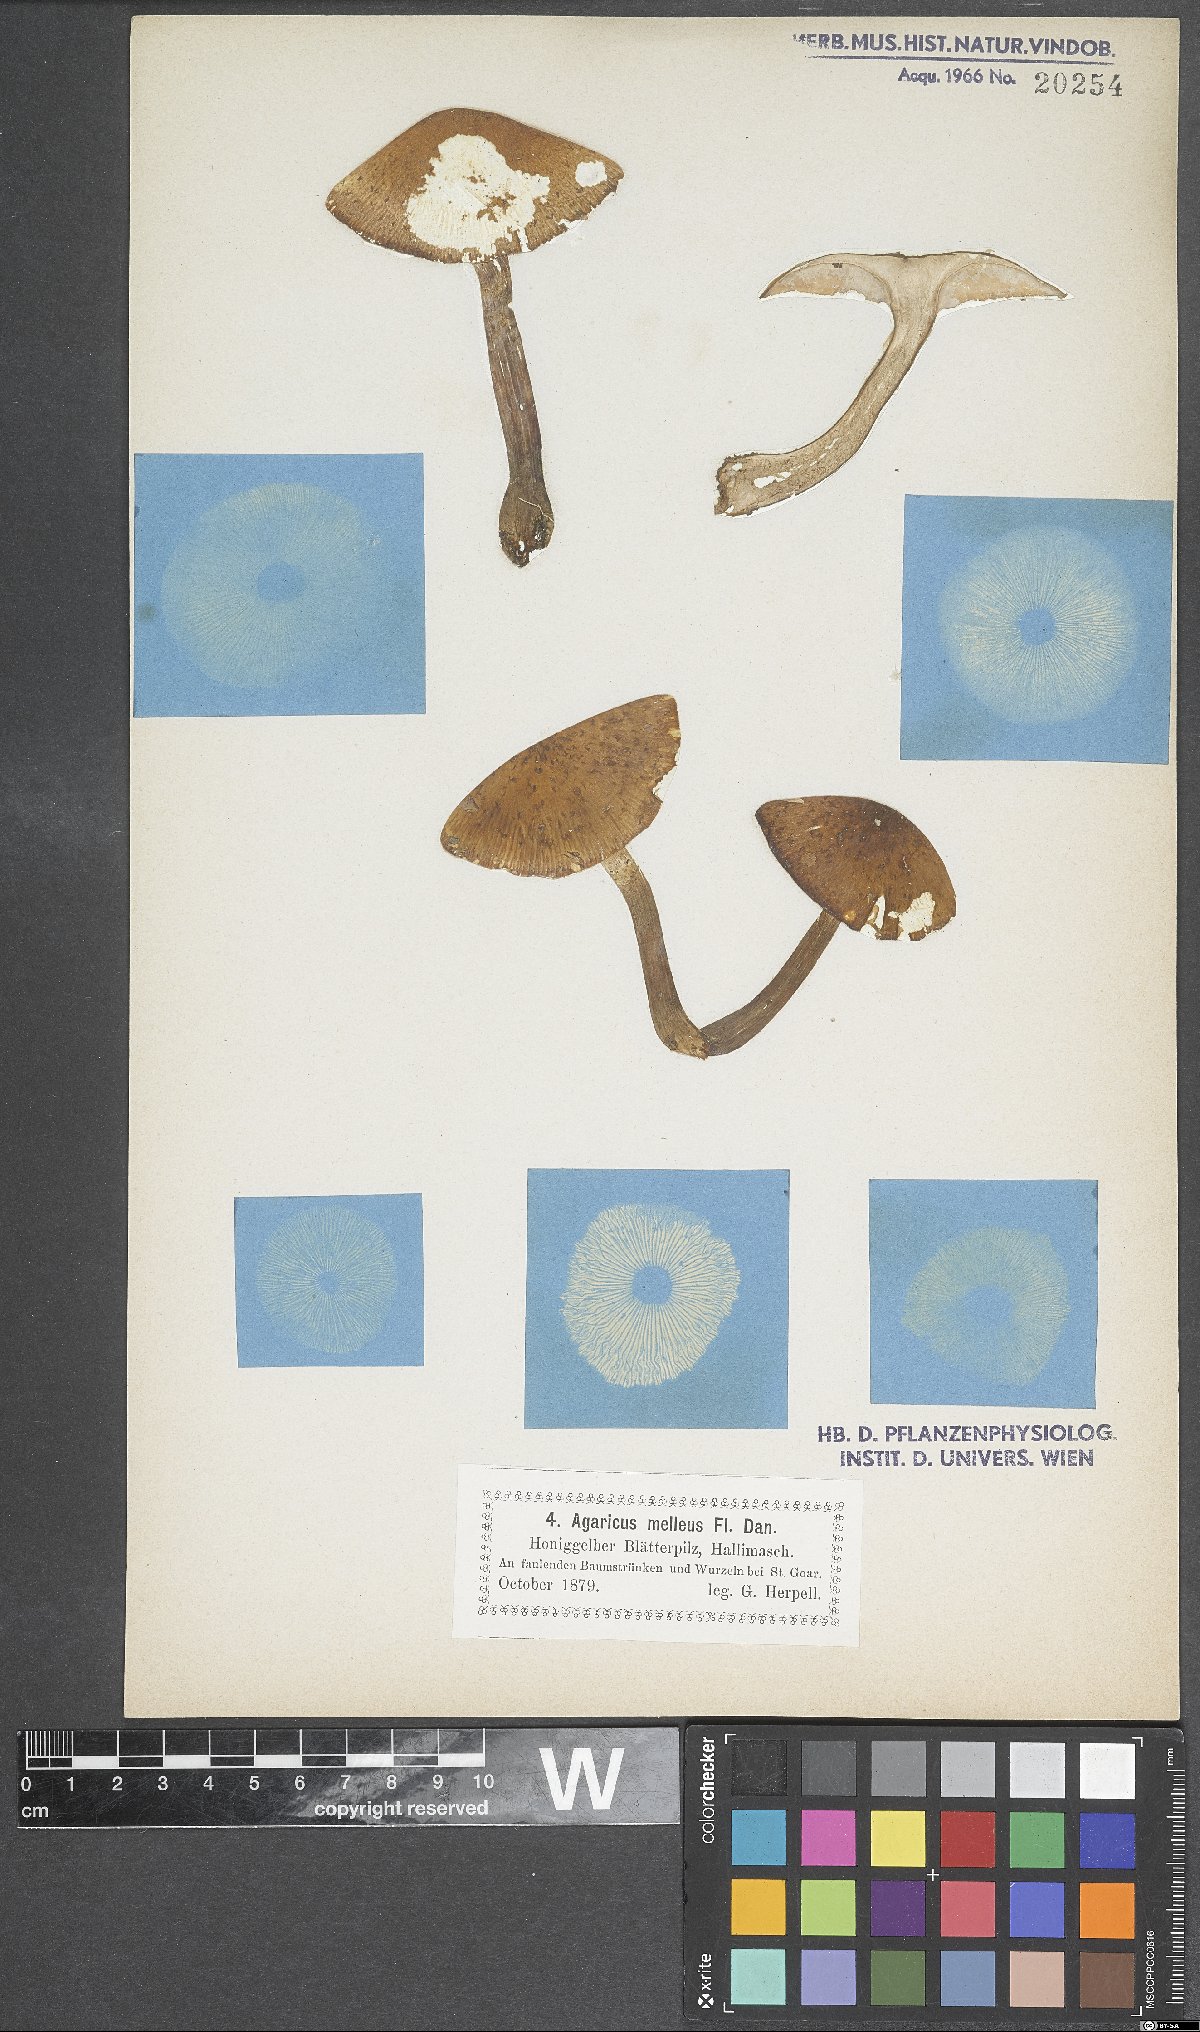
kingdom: Fungi
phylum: Basidiomycota
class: Agaricomycetes
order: Agaricales
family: Physalacriaceae
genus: Armillaria
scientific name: Armillaria mellea
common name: Honey fungus
